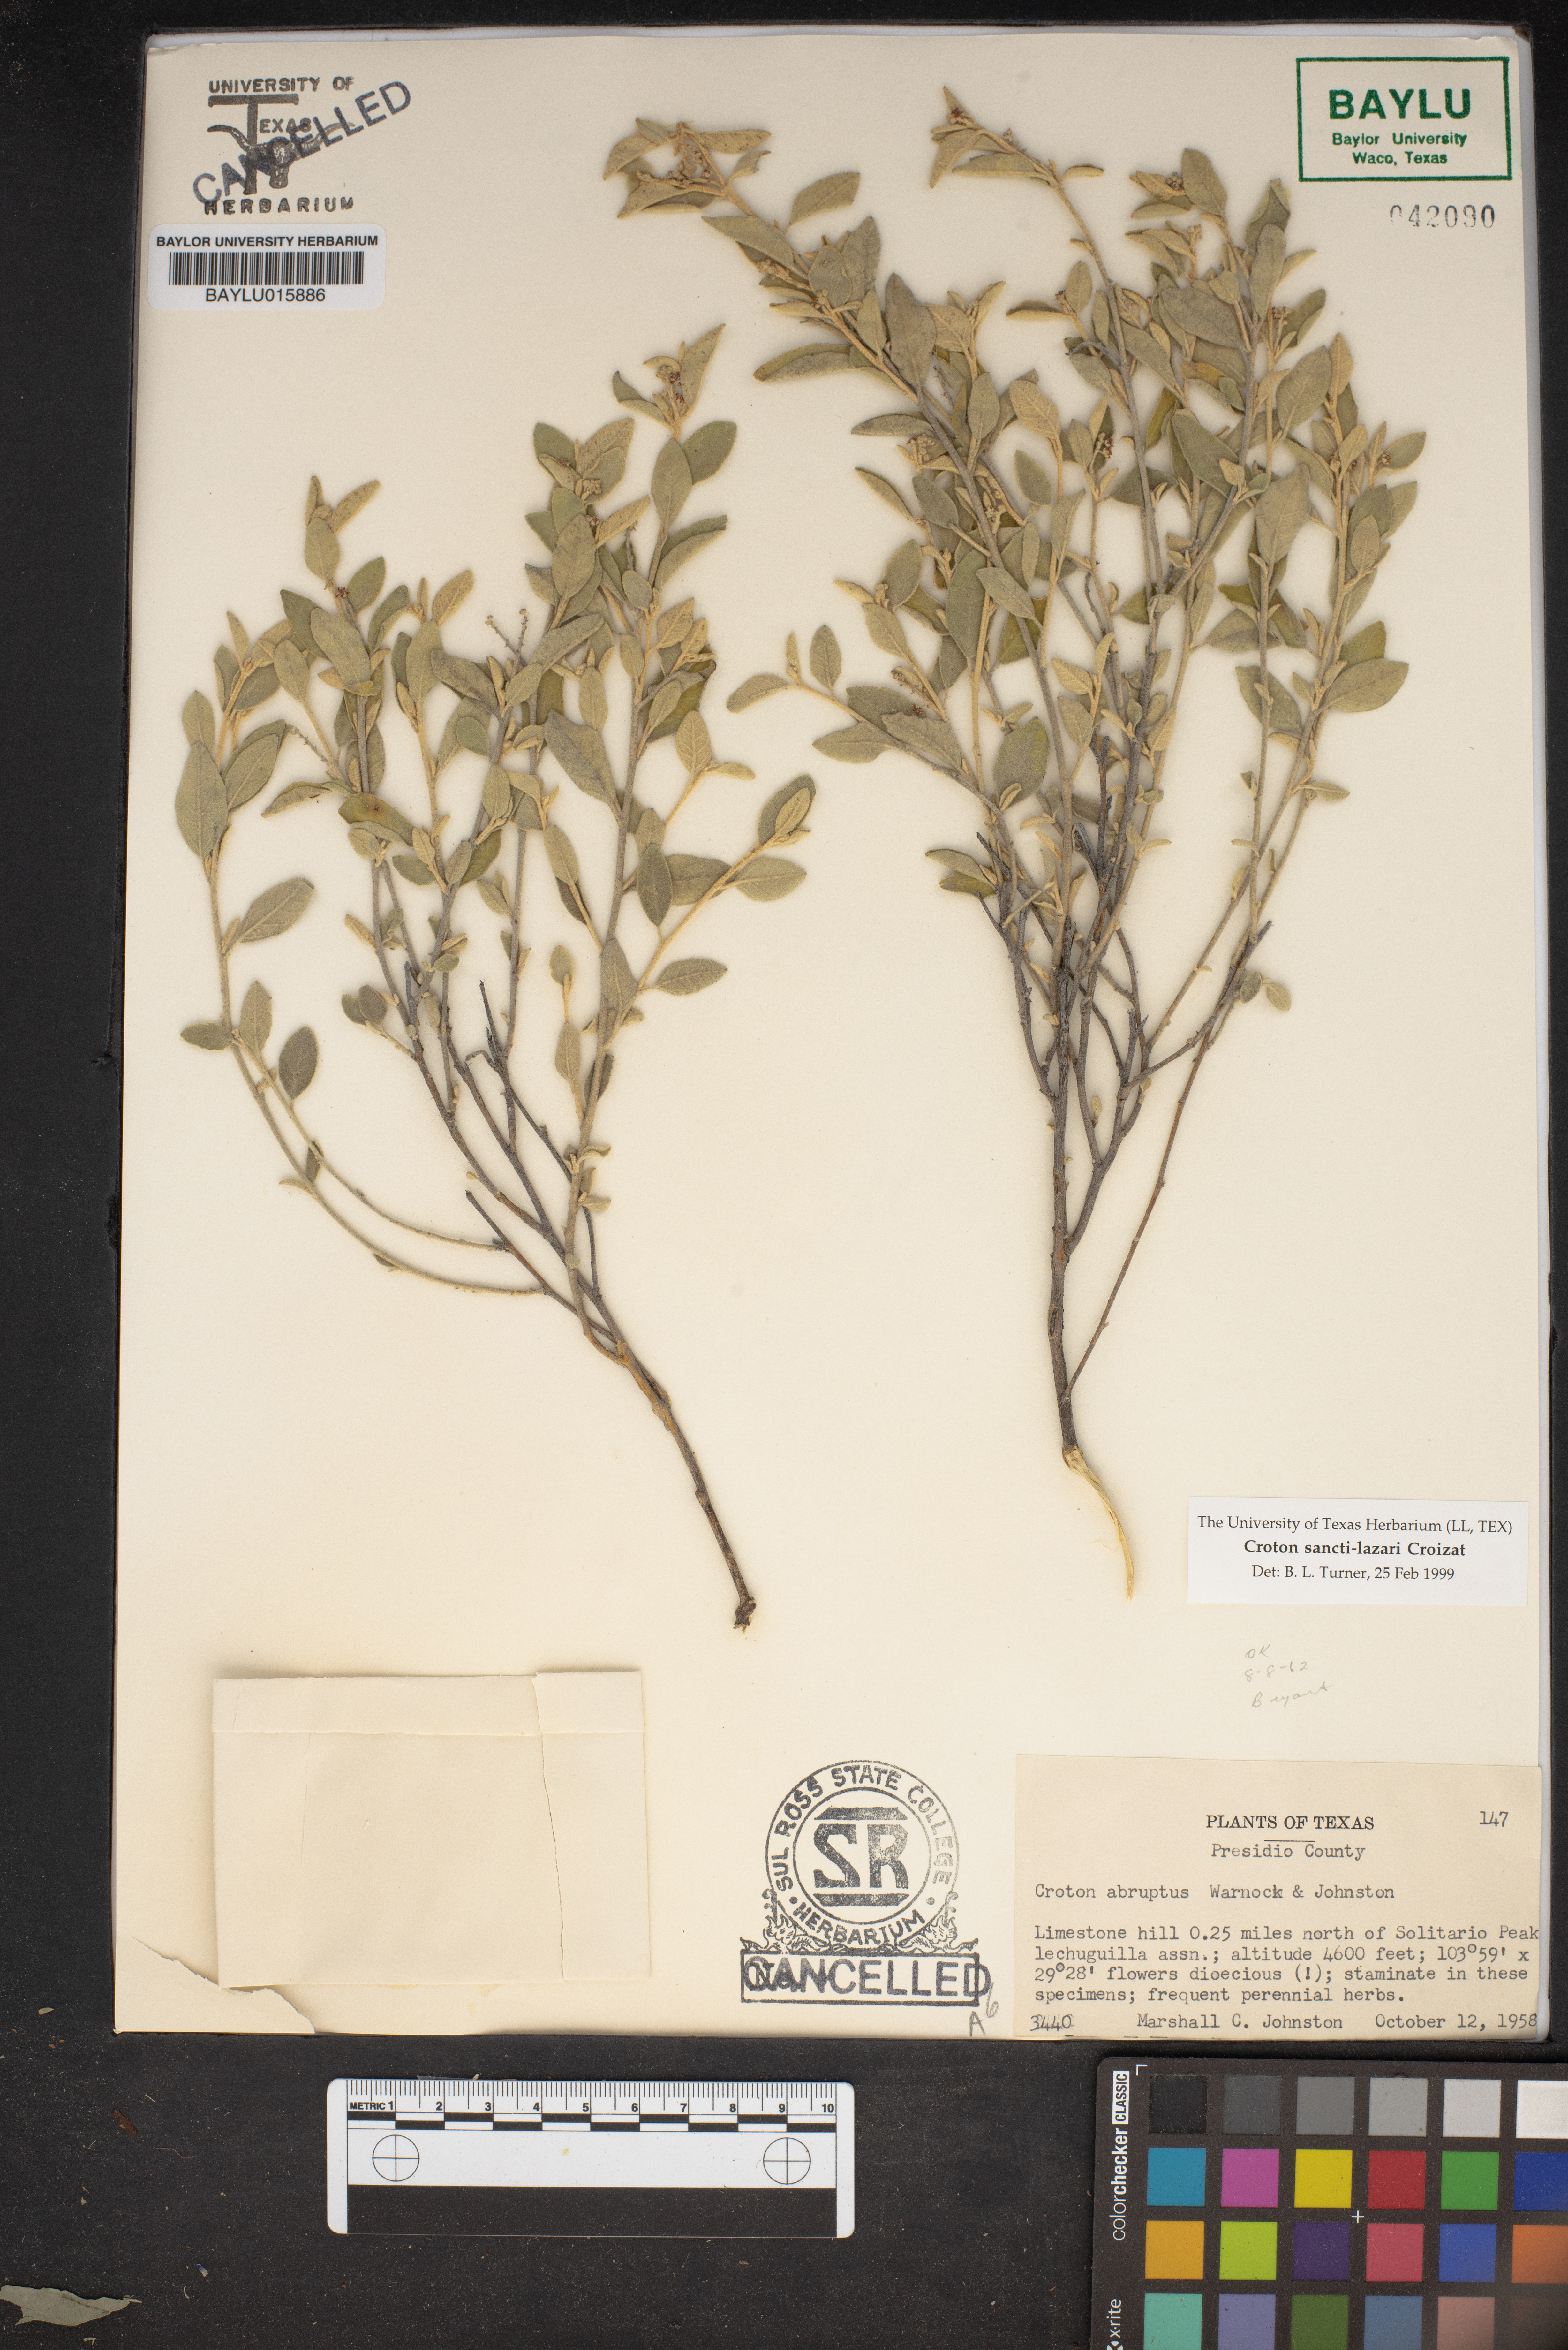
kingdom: Plantae
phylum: Tracheophyta
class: Magnoliopsida
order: Malpighiales
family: Euphorbiaceae
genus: Croton
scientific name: Croton sancti-lazari
